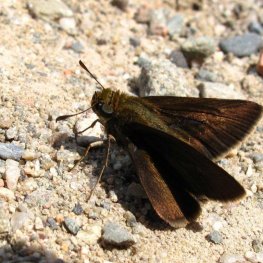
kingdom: Animalia
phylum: Arthropoda
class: Insecta
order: Lepidoptera
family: Hesperiidae
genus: Euphyes
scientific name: Euphyes vestris
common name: Dun Skipper
